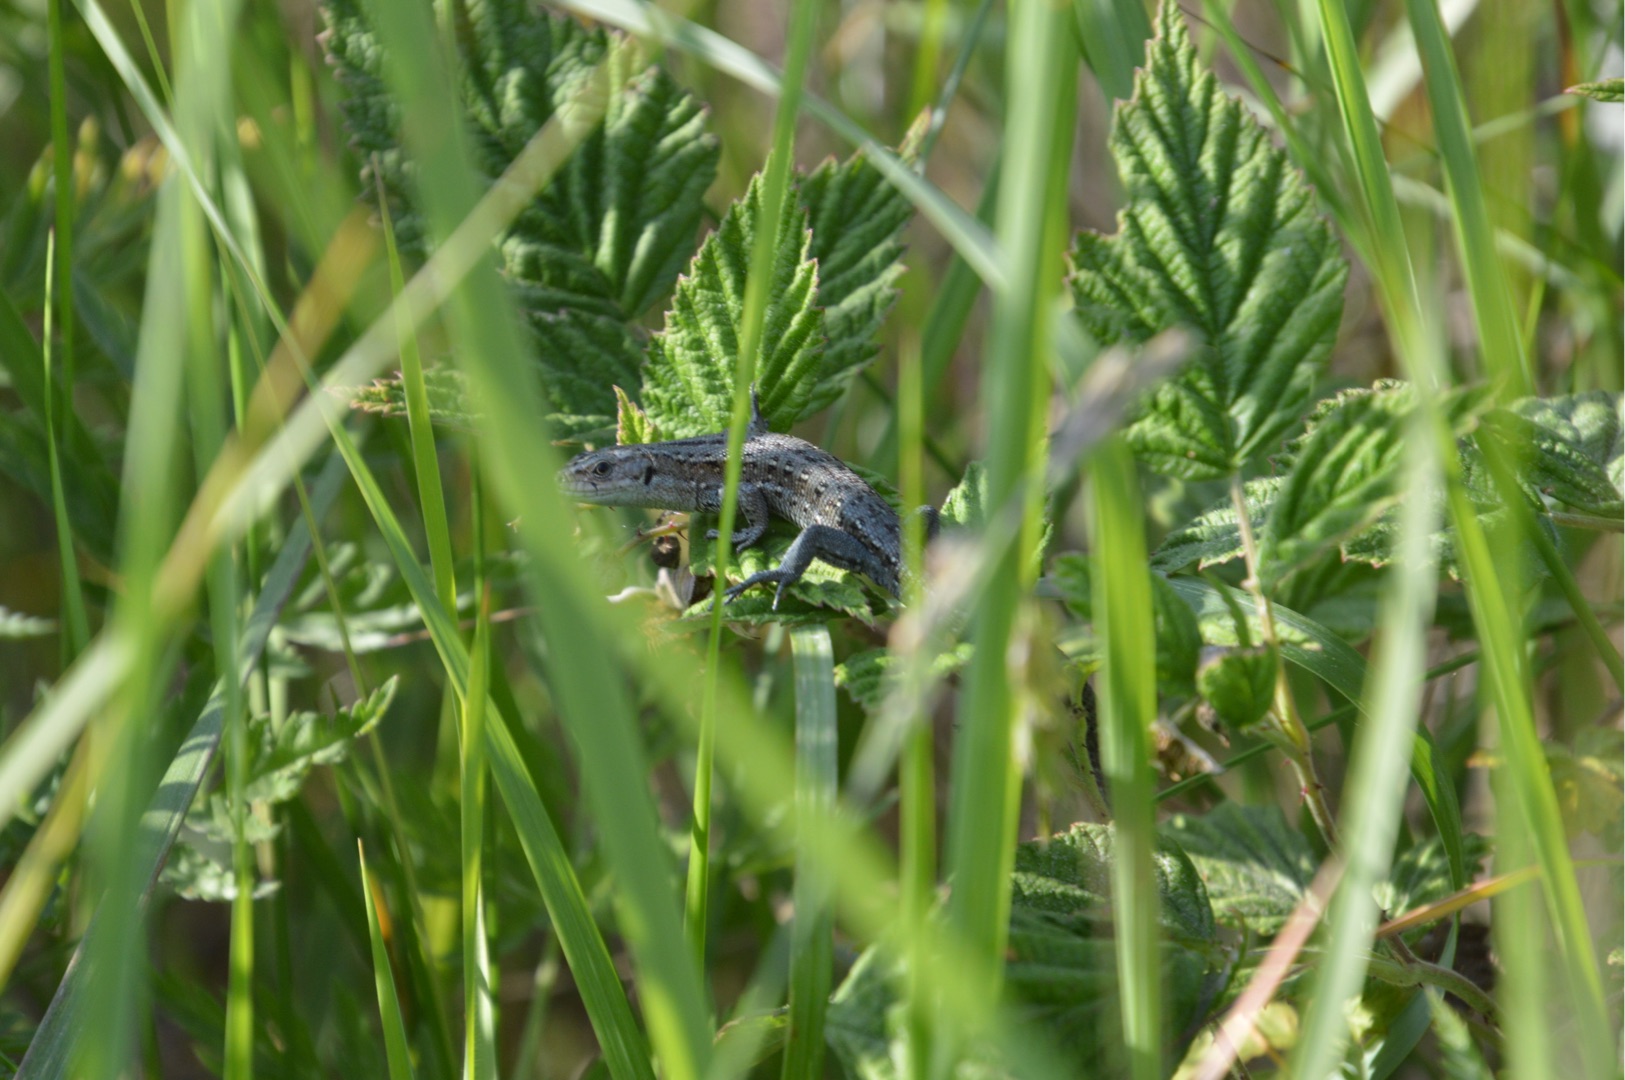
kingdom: Animalia
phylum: Chordata
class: Squamata
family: Lacertidae
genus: Zootoca
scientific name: Zootoca vivipara
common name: Skovfirben
